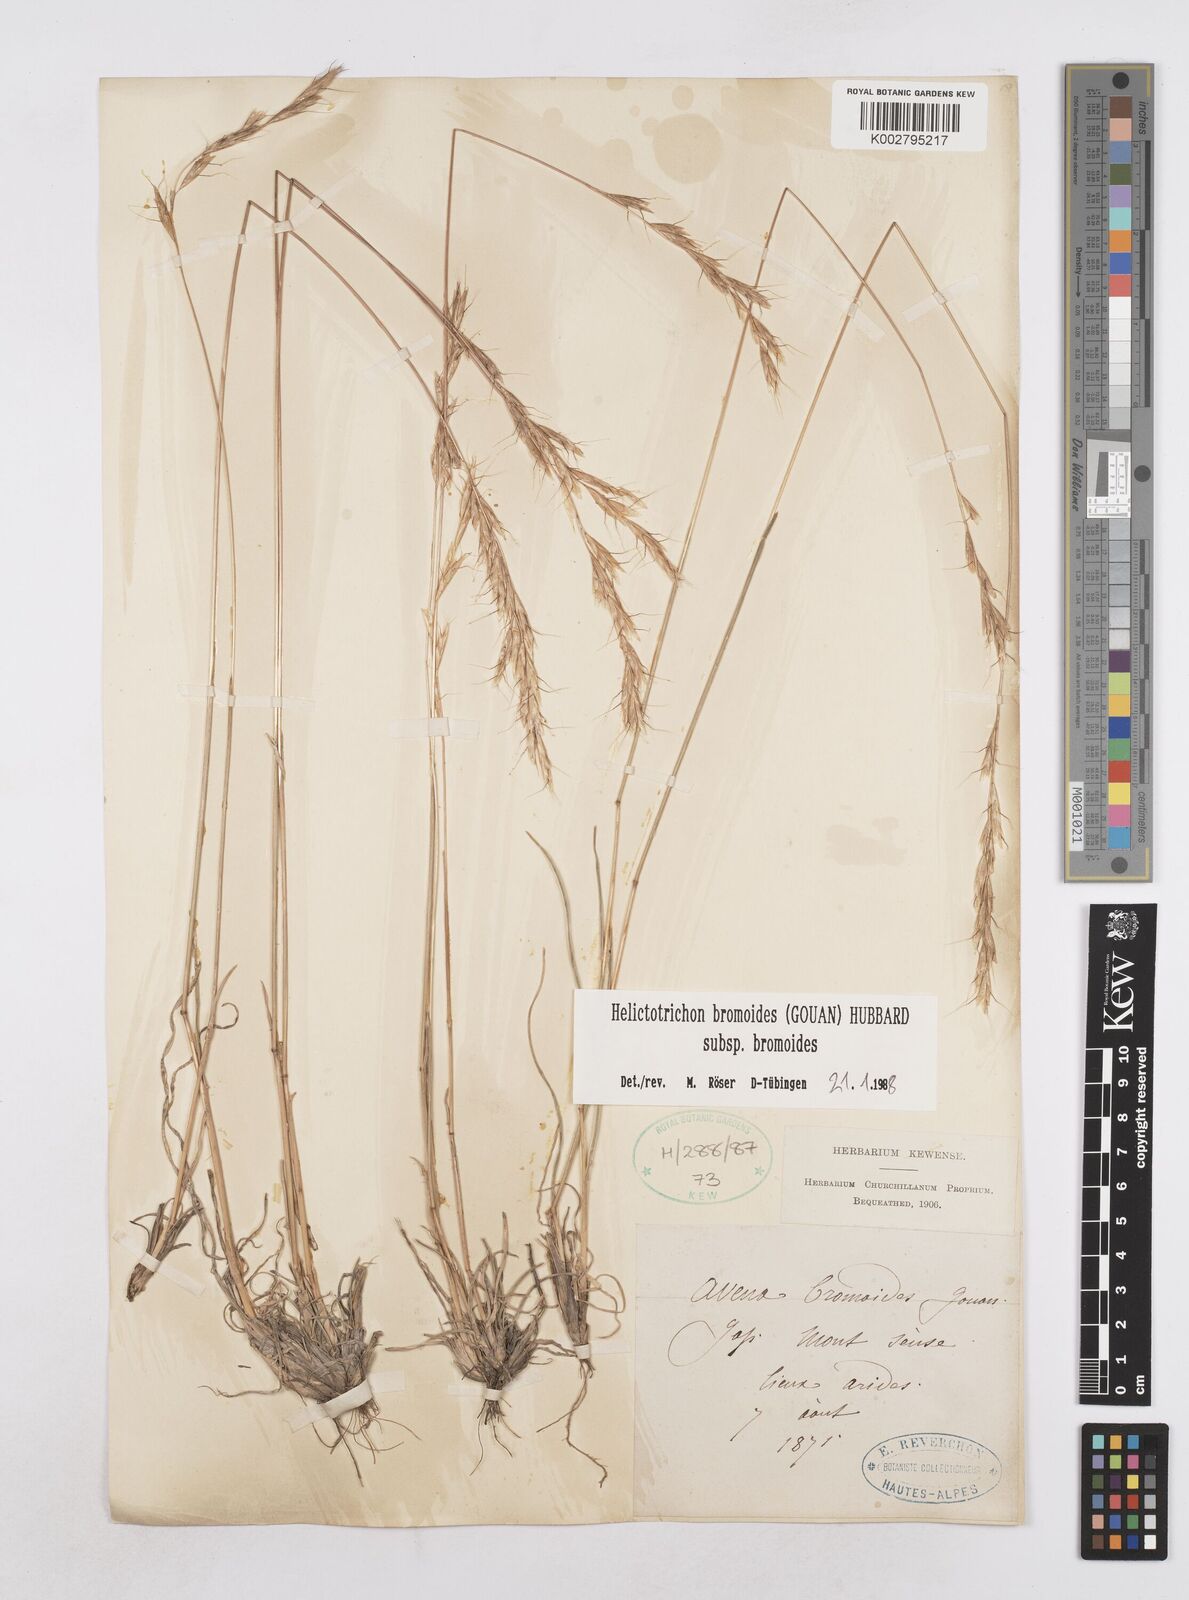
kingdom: Plantae
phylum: Tracheophyta
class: Liliopsida
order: Poales
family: Poaceae
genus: Helictochloa
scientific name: Helictochloa bromoides
